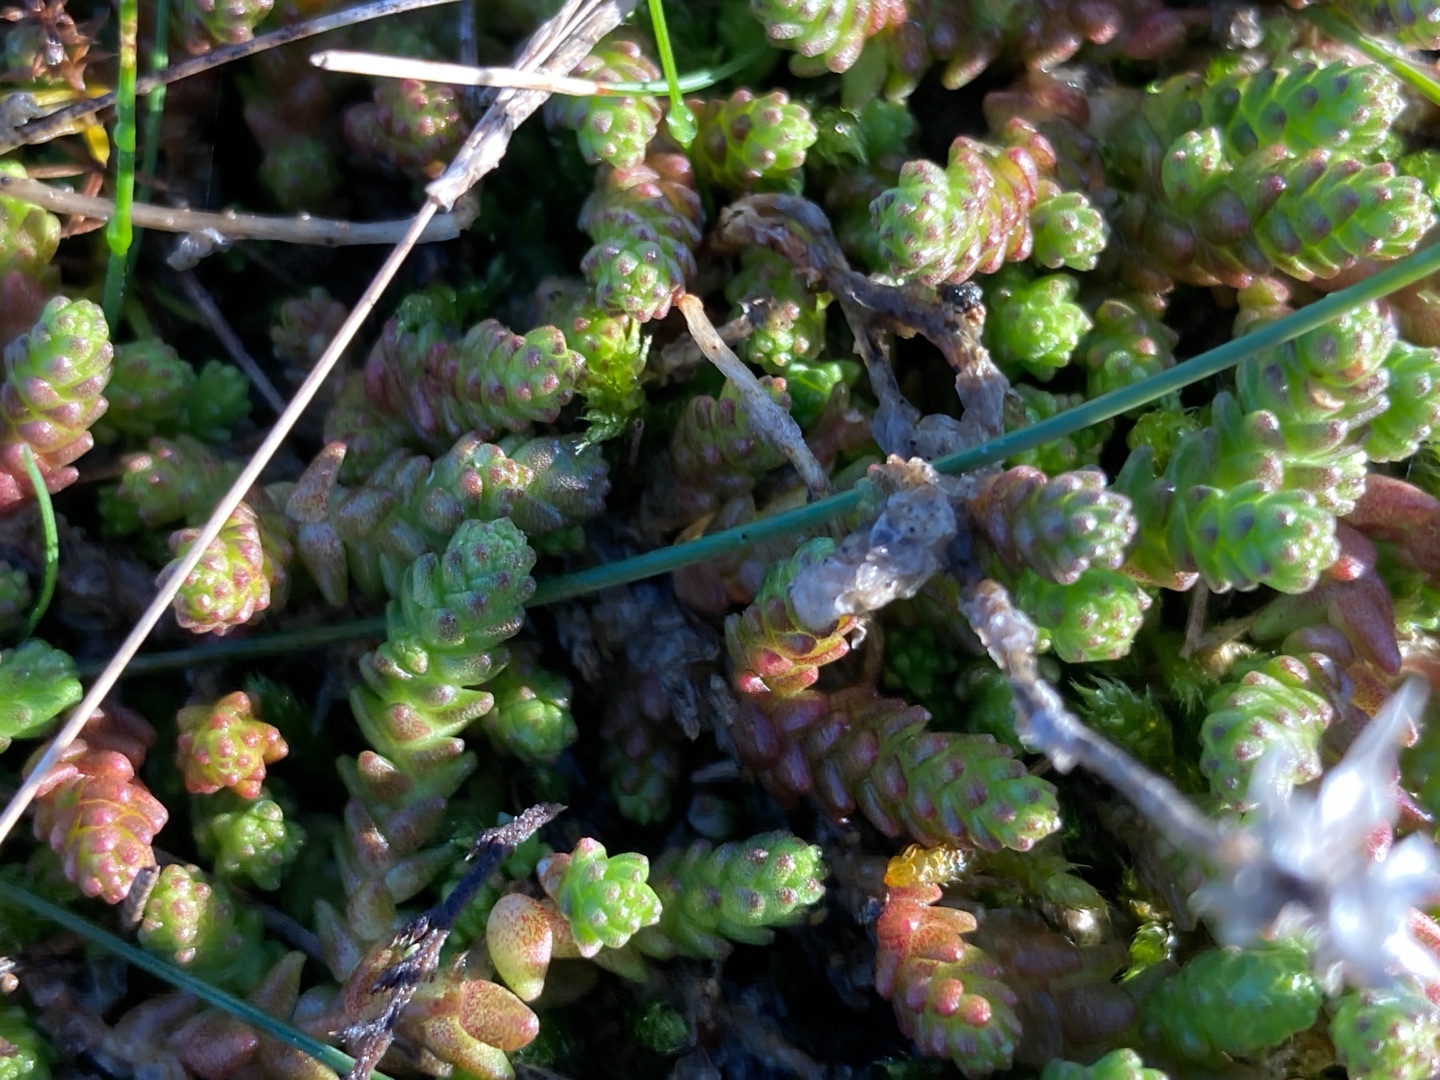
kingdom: Plantae
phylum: Tracheophyta
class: Magnoliopsida
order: Saxifragales
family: Crassulaceae
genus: Sedum
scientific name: Sedum acre
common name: Bidende stenurt
